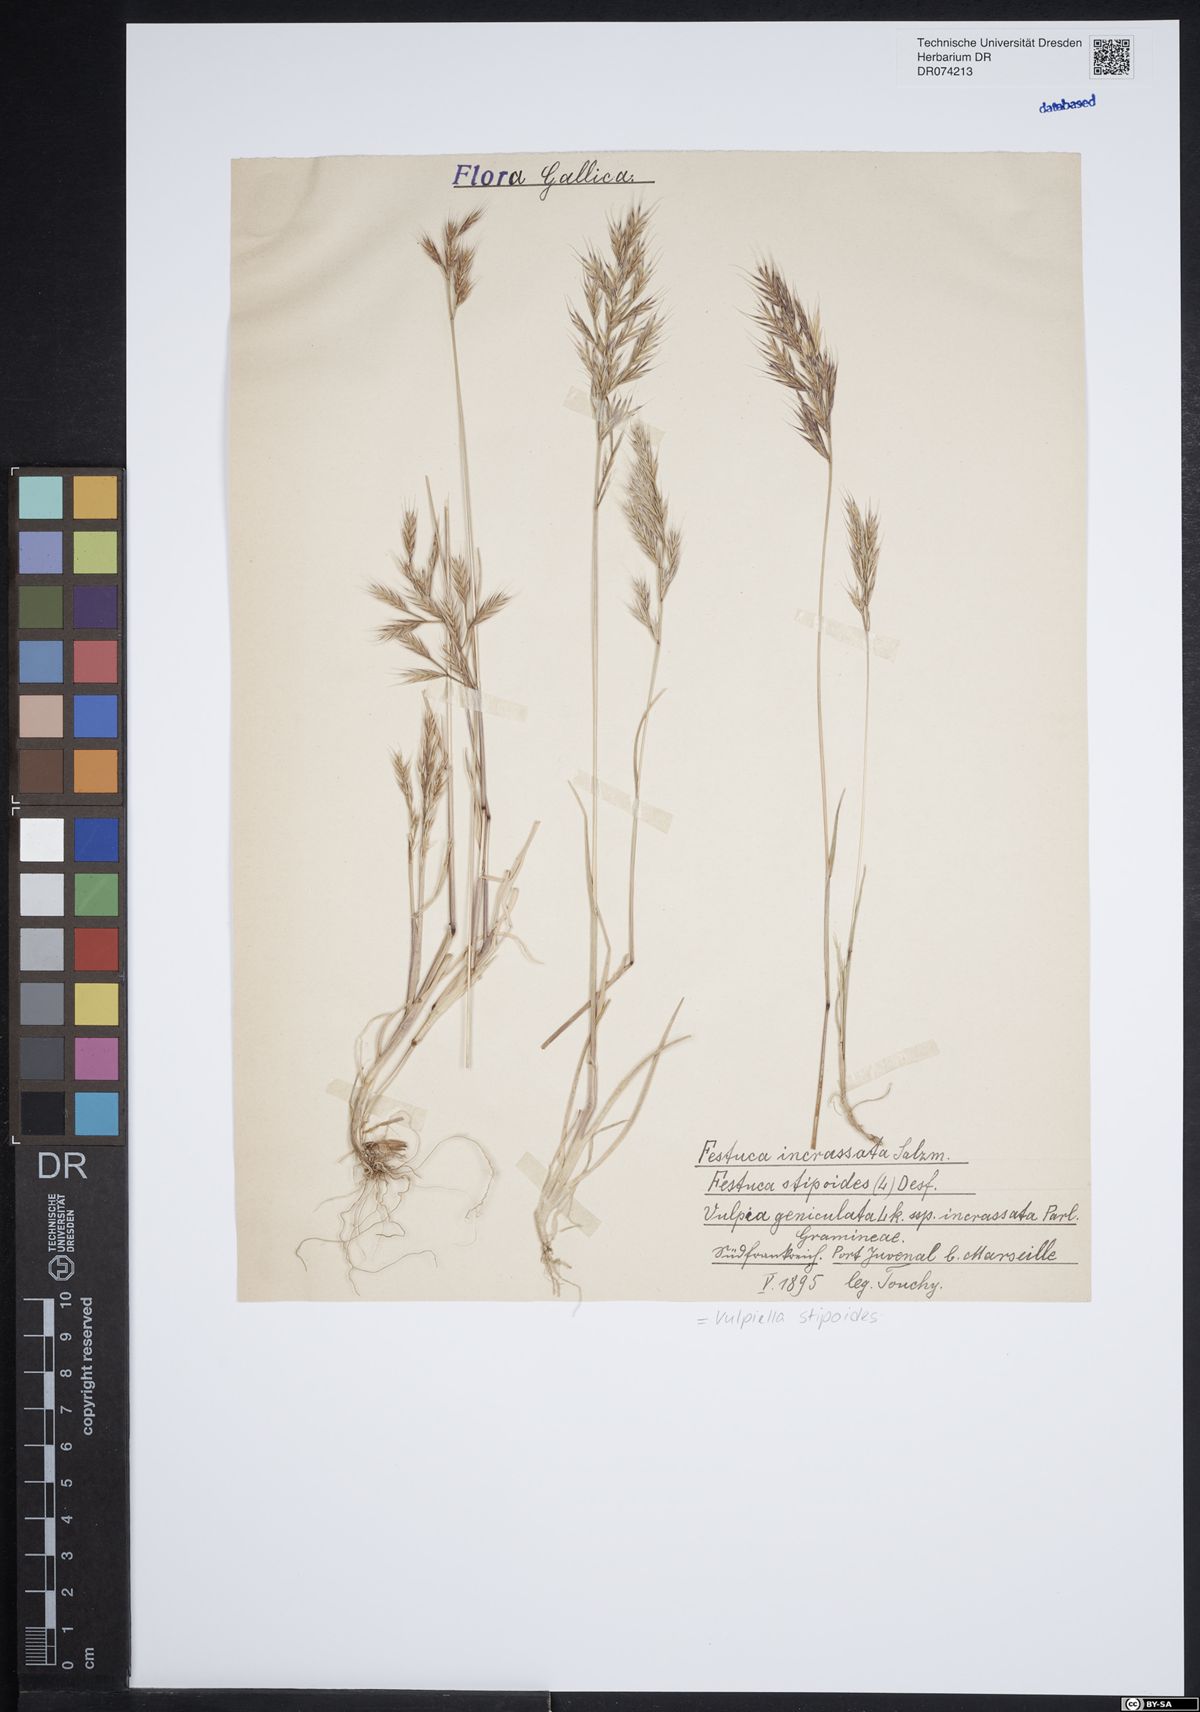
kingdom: Plantae
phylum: Tracheophyta
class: Liliopsida
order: Poales
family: Poaceae
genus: Vulpiella
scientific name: Vulpiella stipoides
